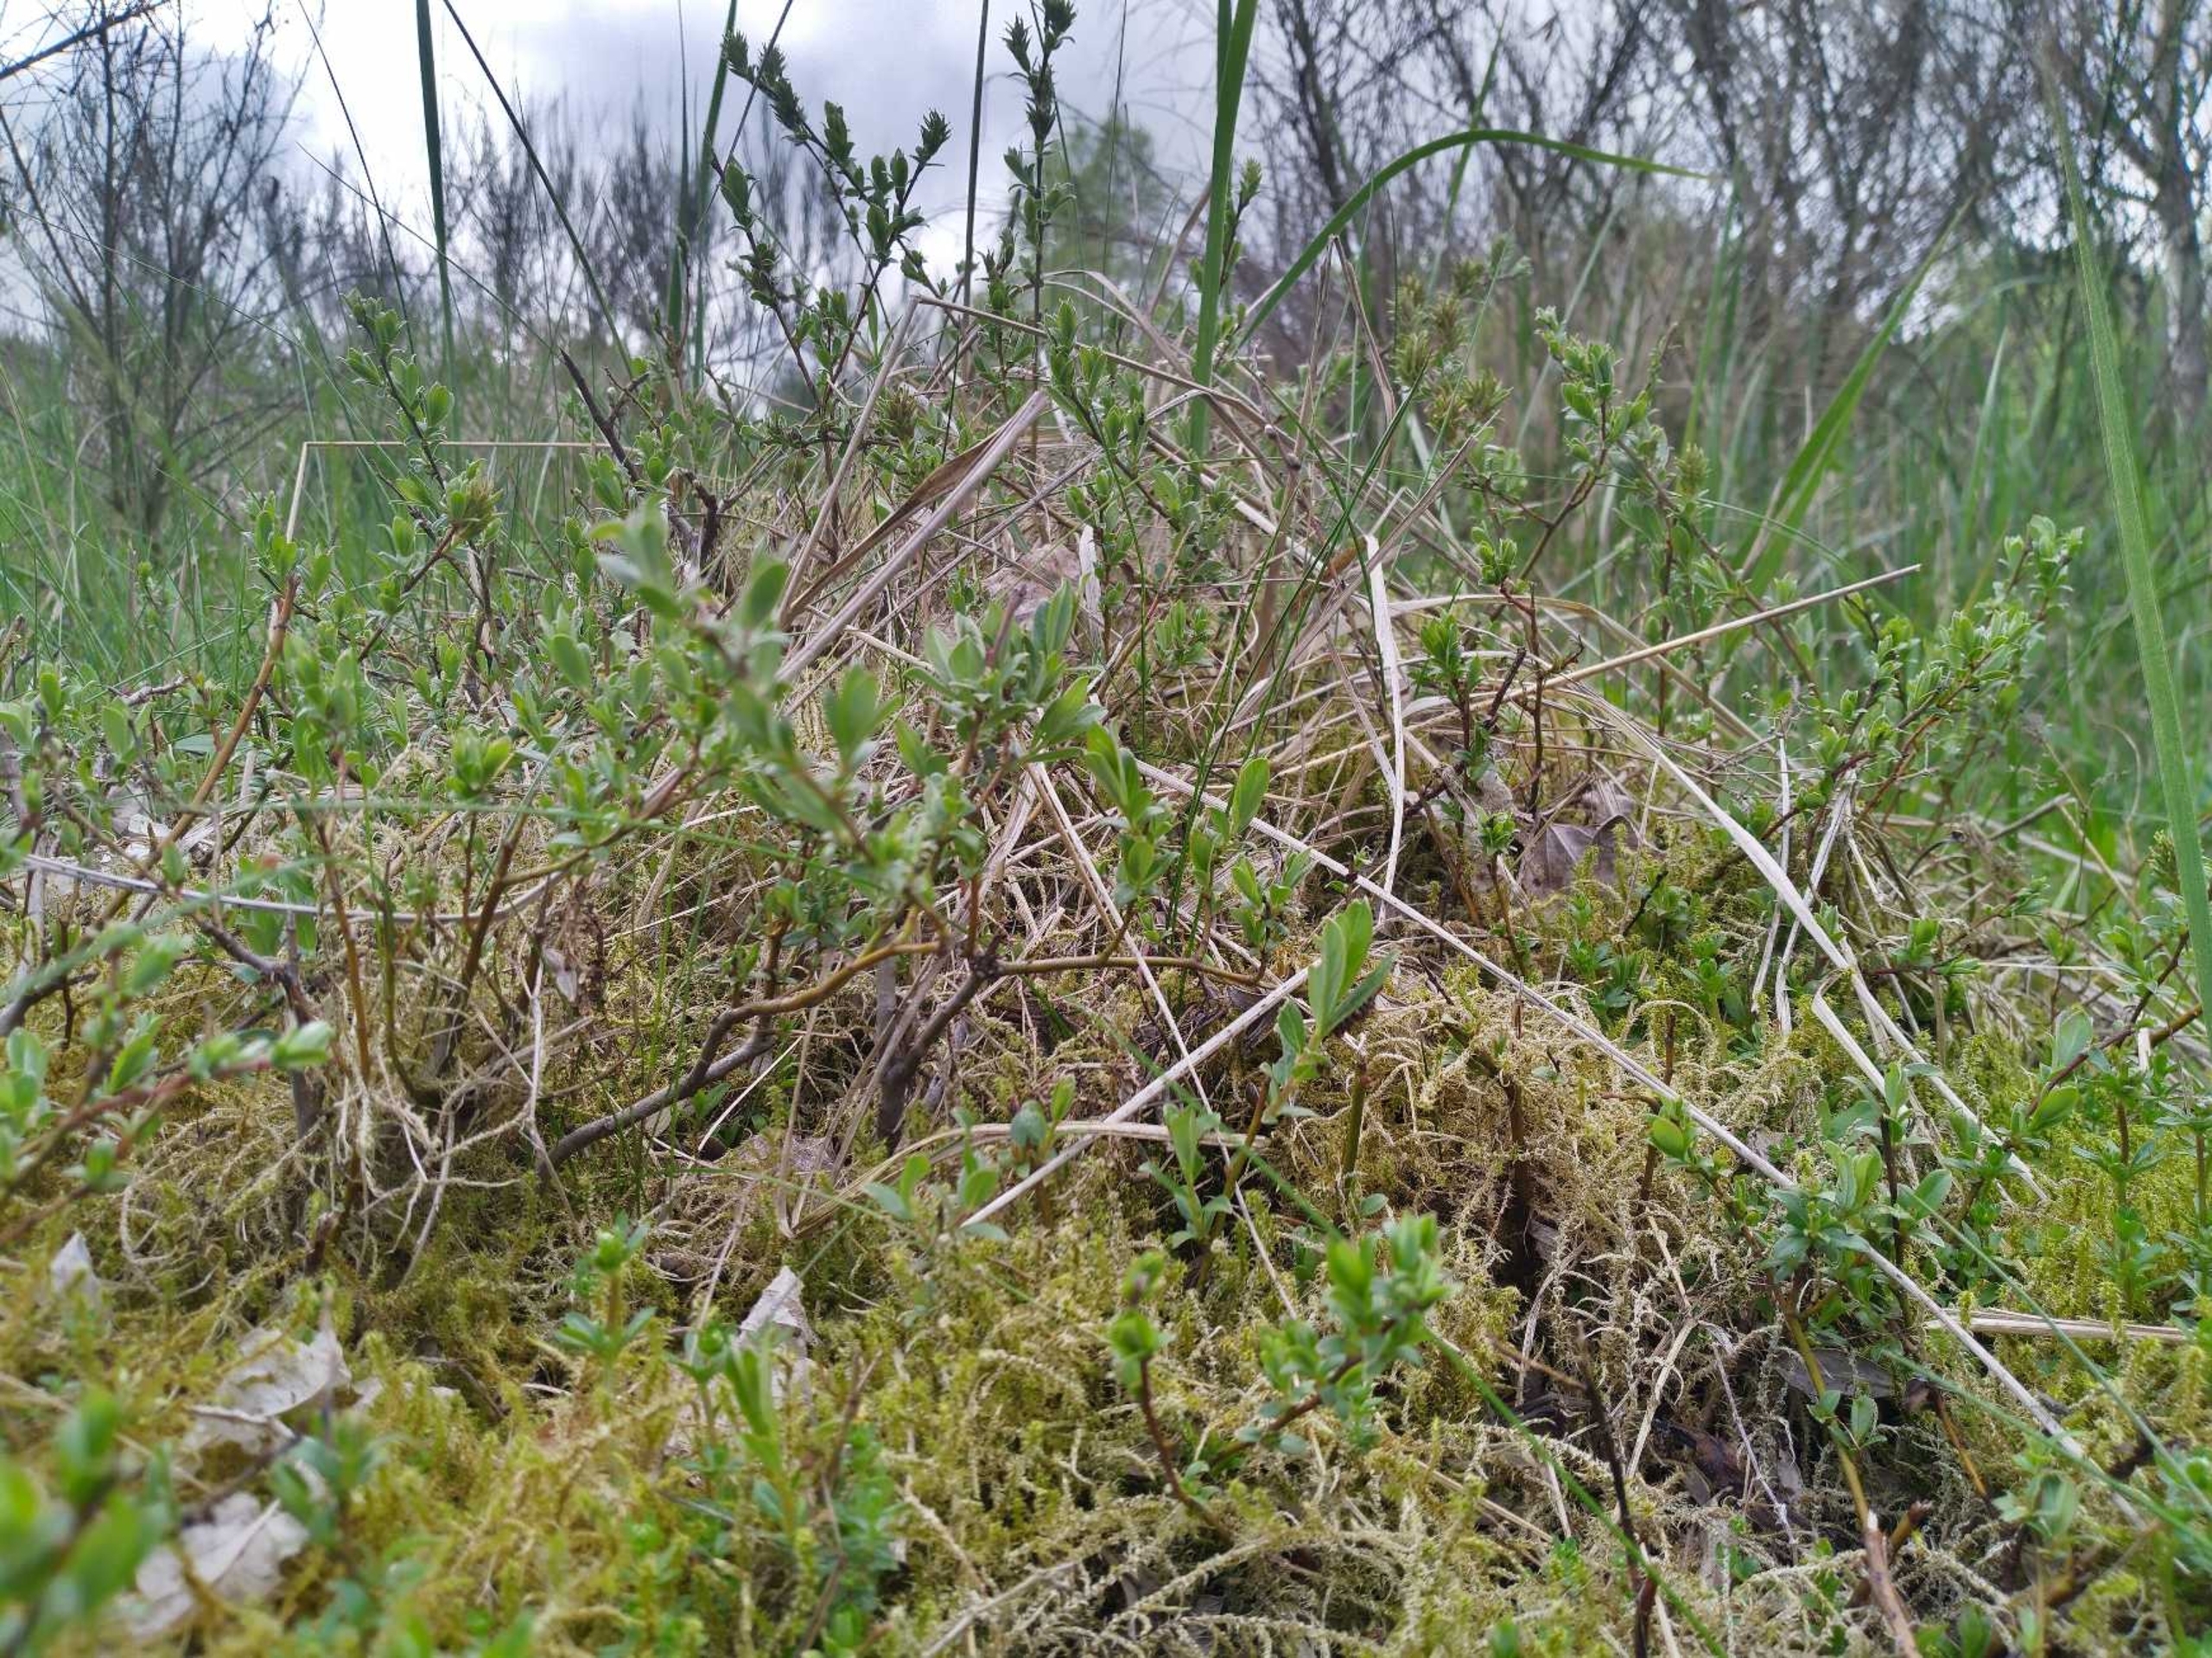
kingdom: Plantae
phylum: Tracheophyta
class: Magnoliopsida
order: Malpighiales
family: Salicaceae
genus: Salix
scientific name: Salix repens
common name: Krybende pil
